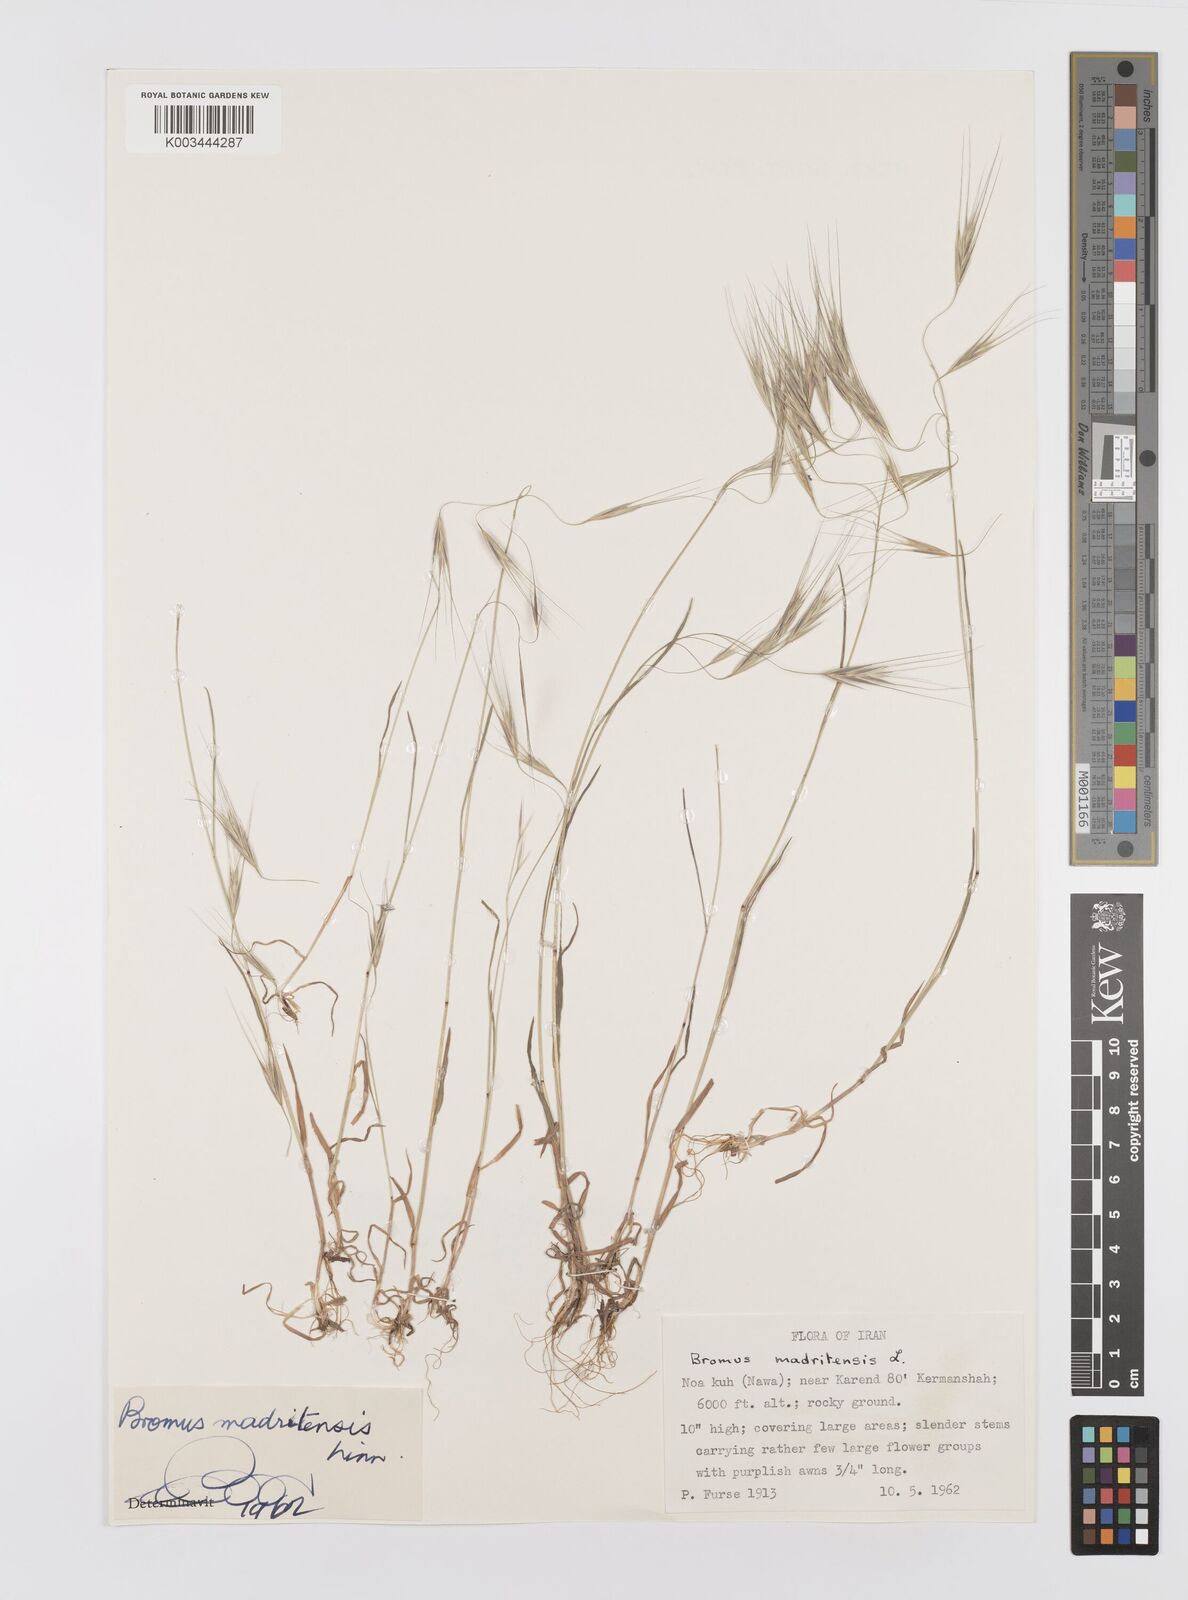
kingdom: Plantae
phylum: Tracheophyta
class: Liliopsida
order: Poales
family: Poaceae
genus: Bromus
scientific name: Bromus madritensis
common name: Compact brome
